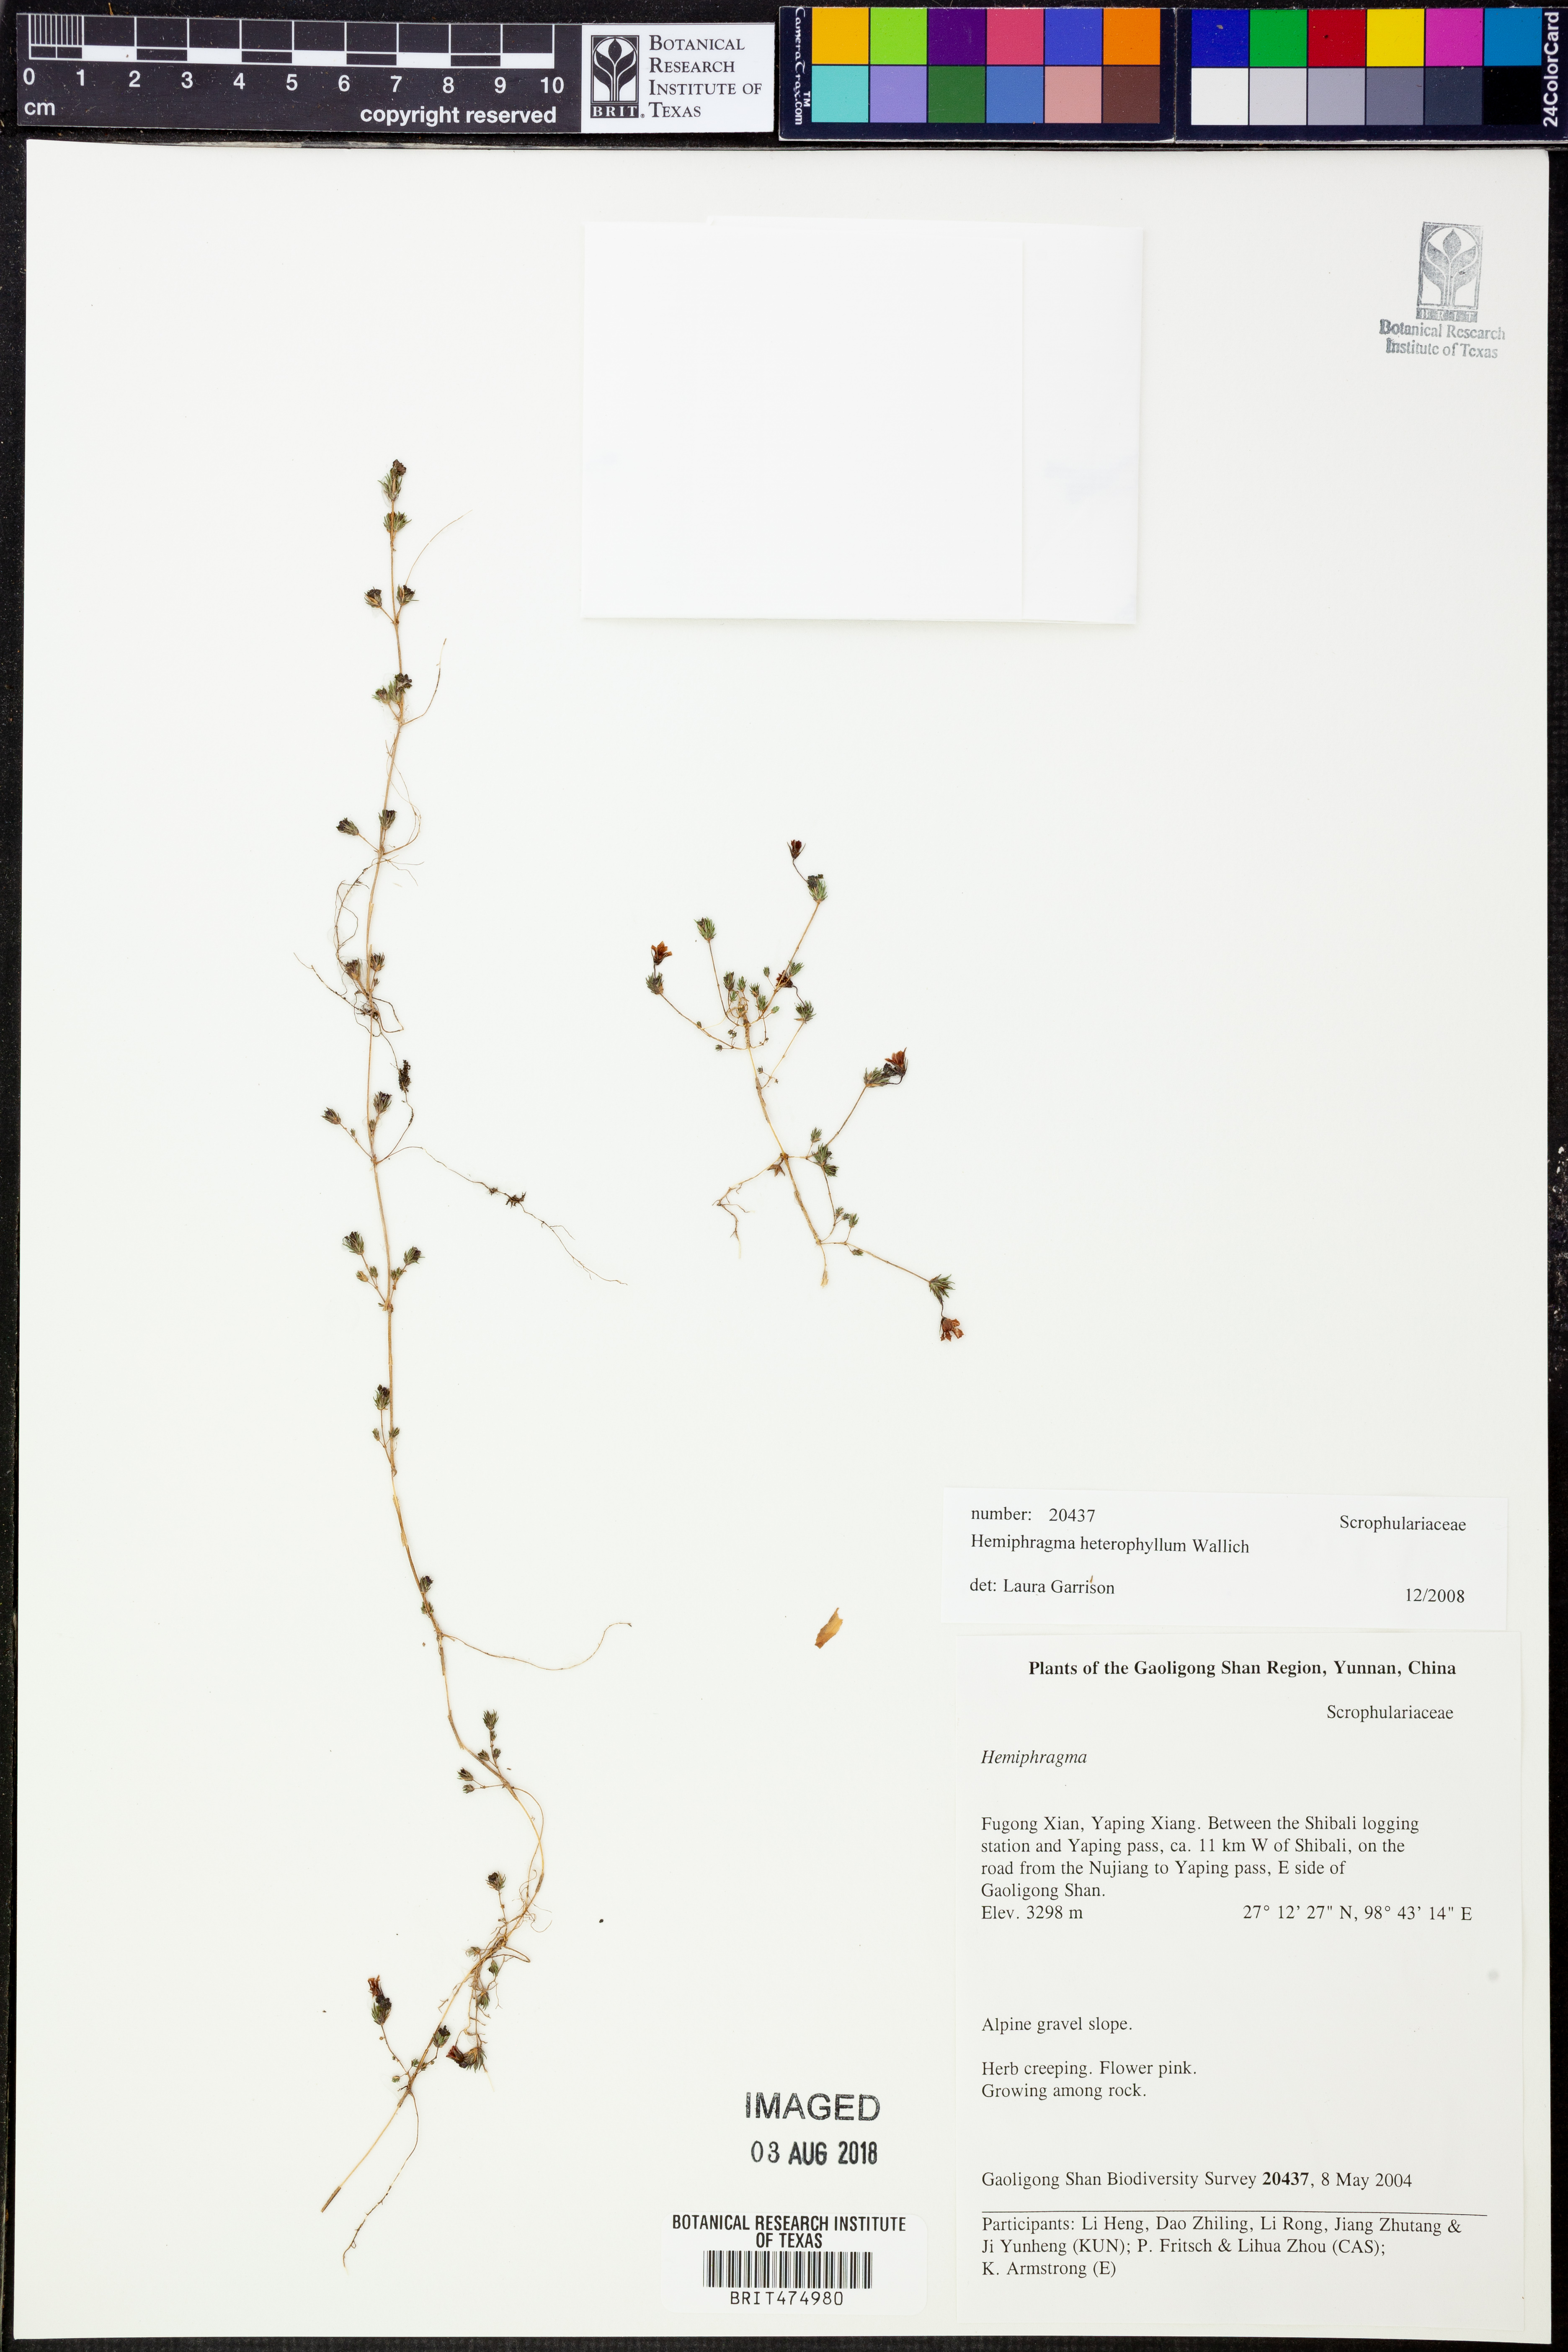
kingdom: Plantae
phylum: Tracheophyta
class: Magnoliopsida
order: Lamiales
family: Plantaginaceae
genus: Hemiphragma
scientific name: Hemiphragma heterophyllum
